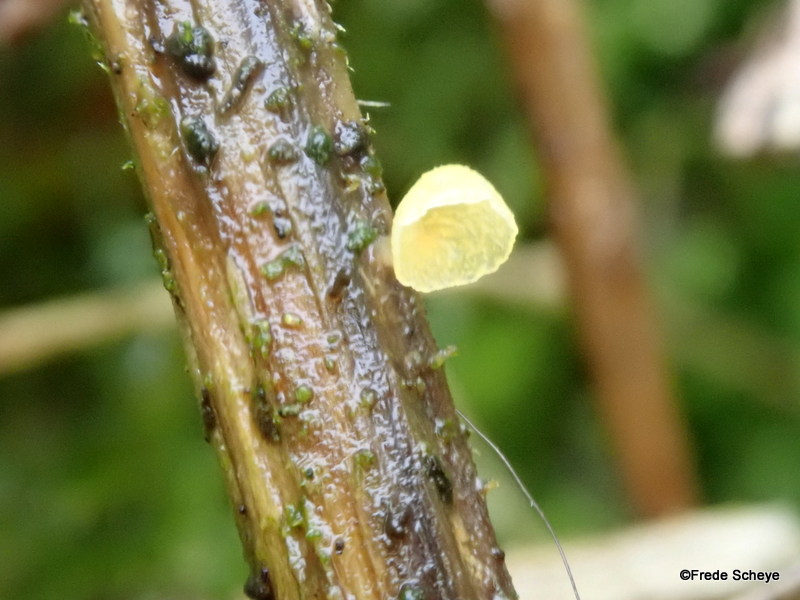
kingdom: Fungi
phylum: Basidiomycota
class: Agaricomycetes
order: Agaricales
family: Marasmiaceae
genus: Calyptella
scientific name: Calyptella campanula
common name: gul nældehue
